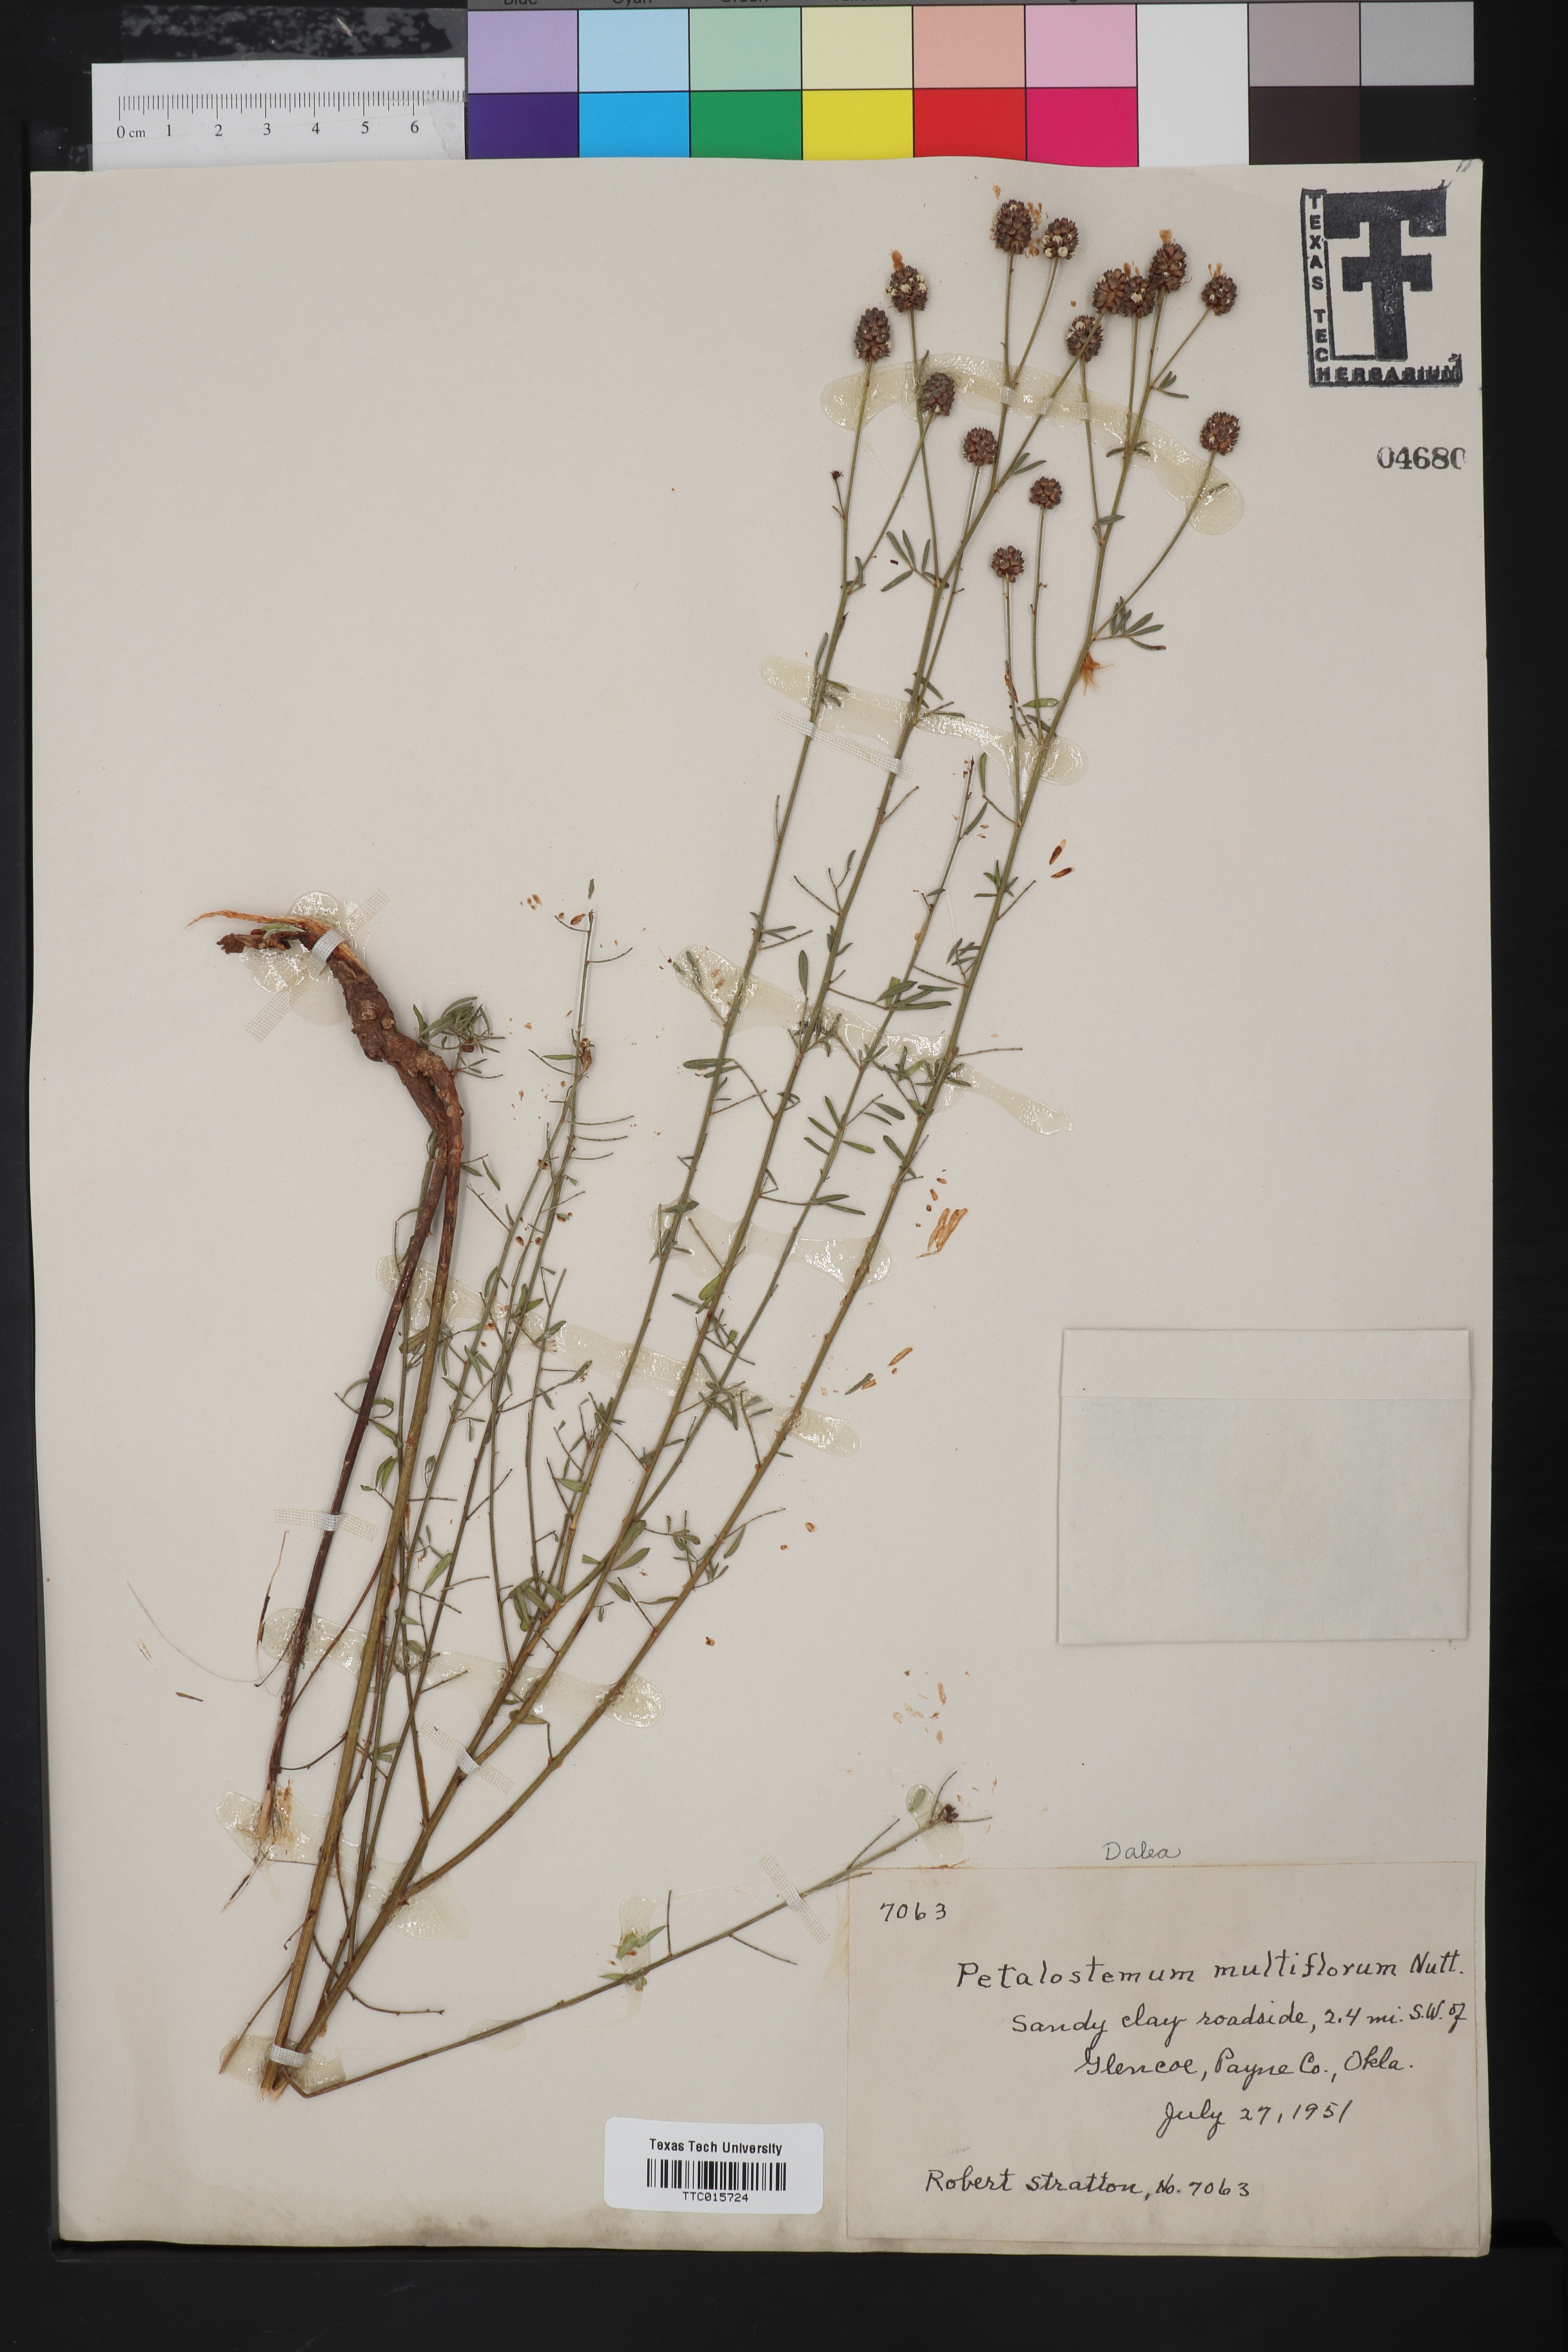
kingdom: Plantae
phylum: Tracheophyta
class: Magnoliopsida
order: Fabales
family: Fabaceae
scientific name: Fabaceae
